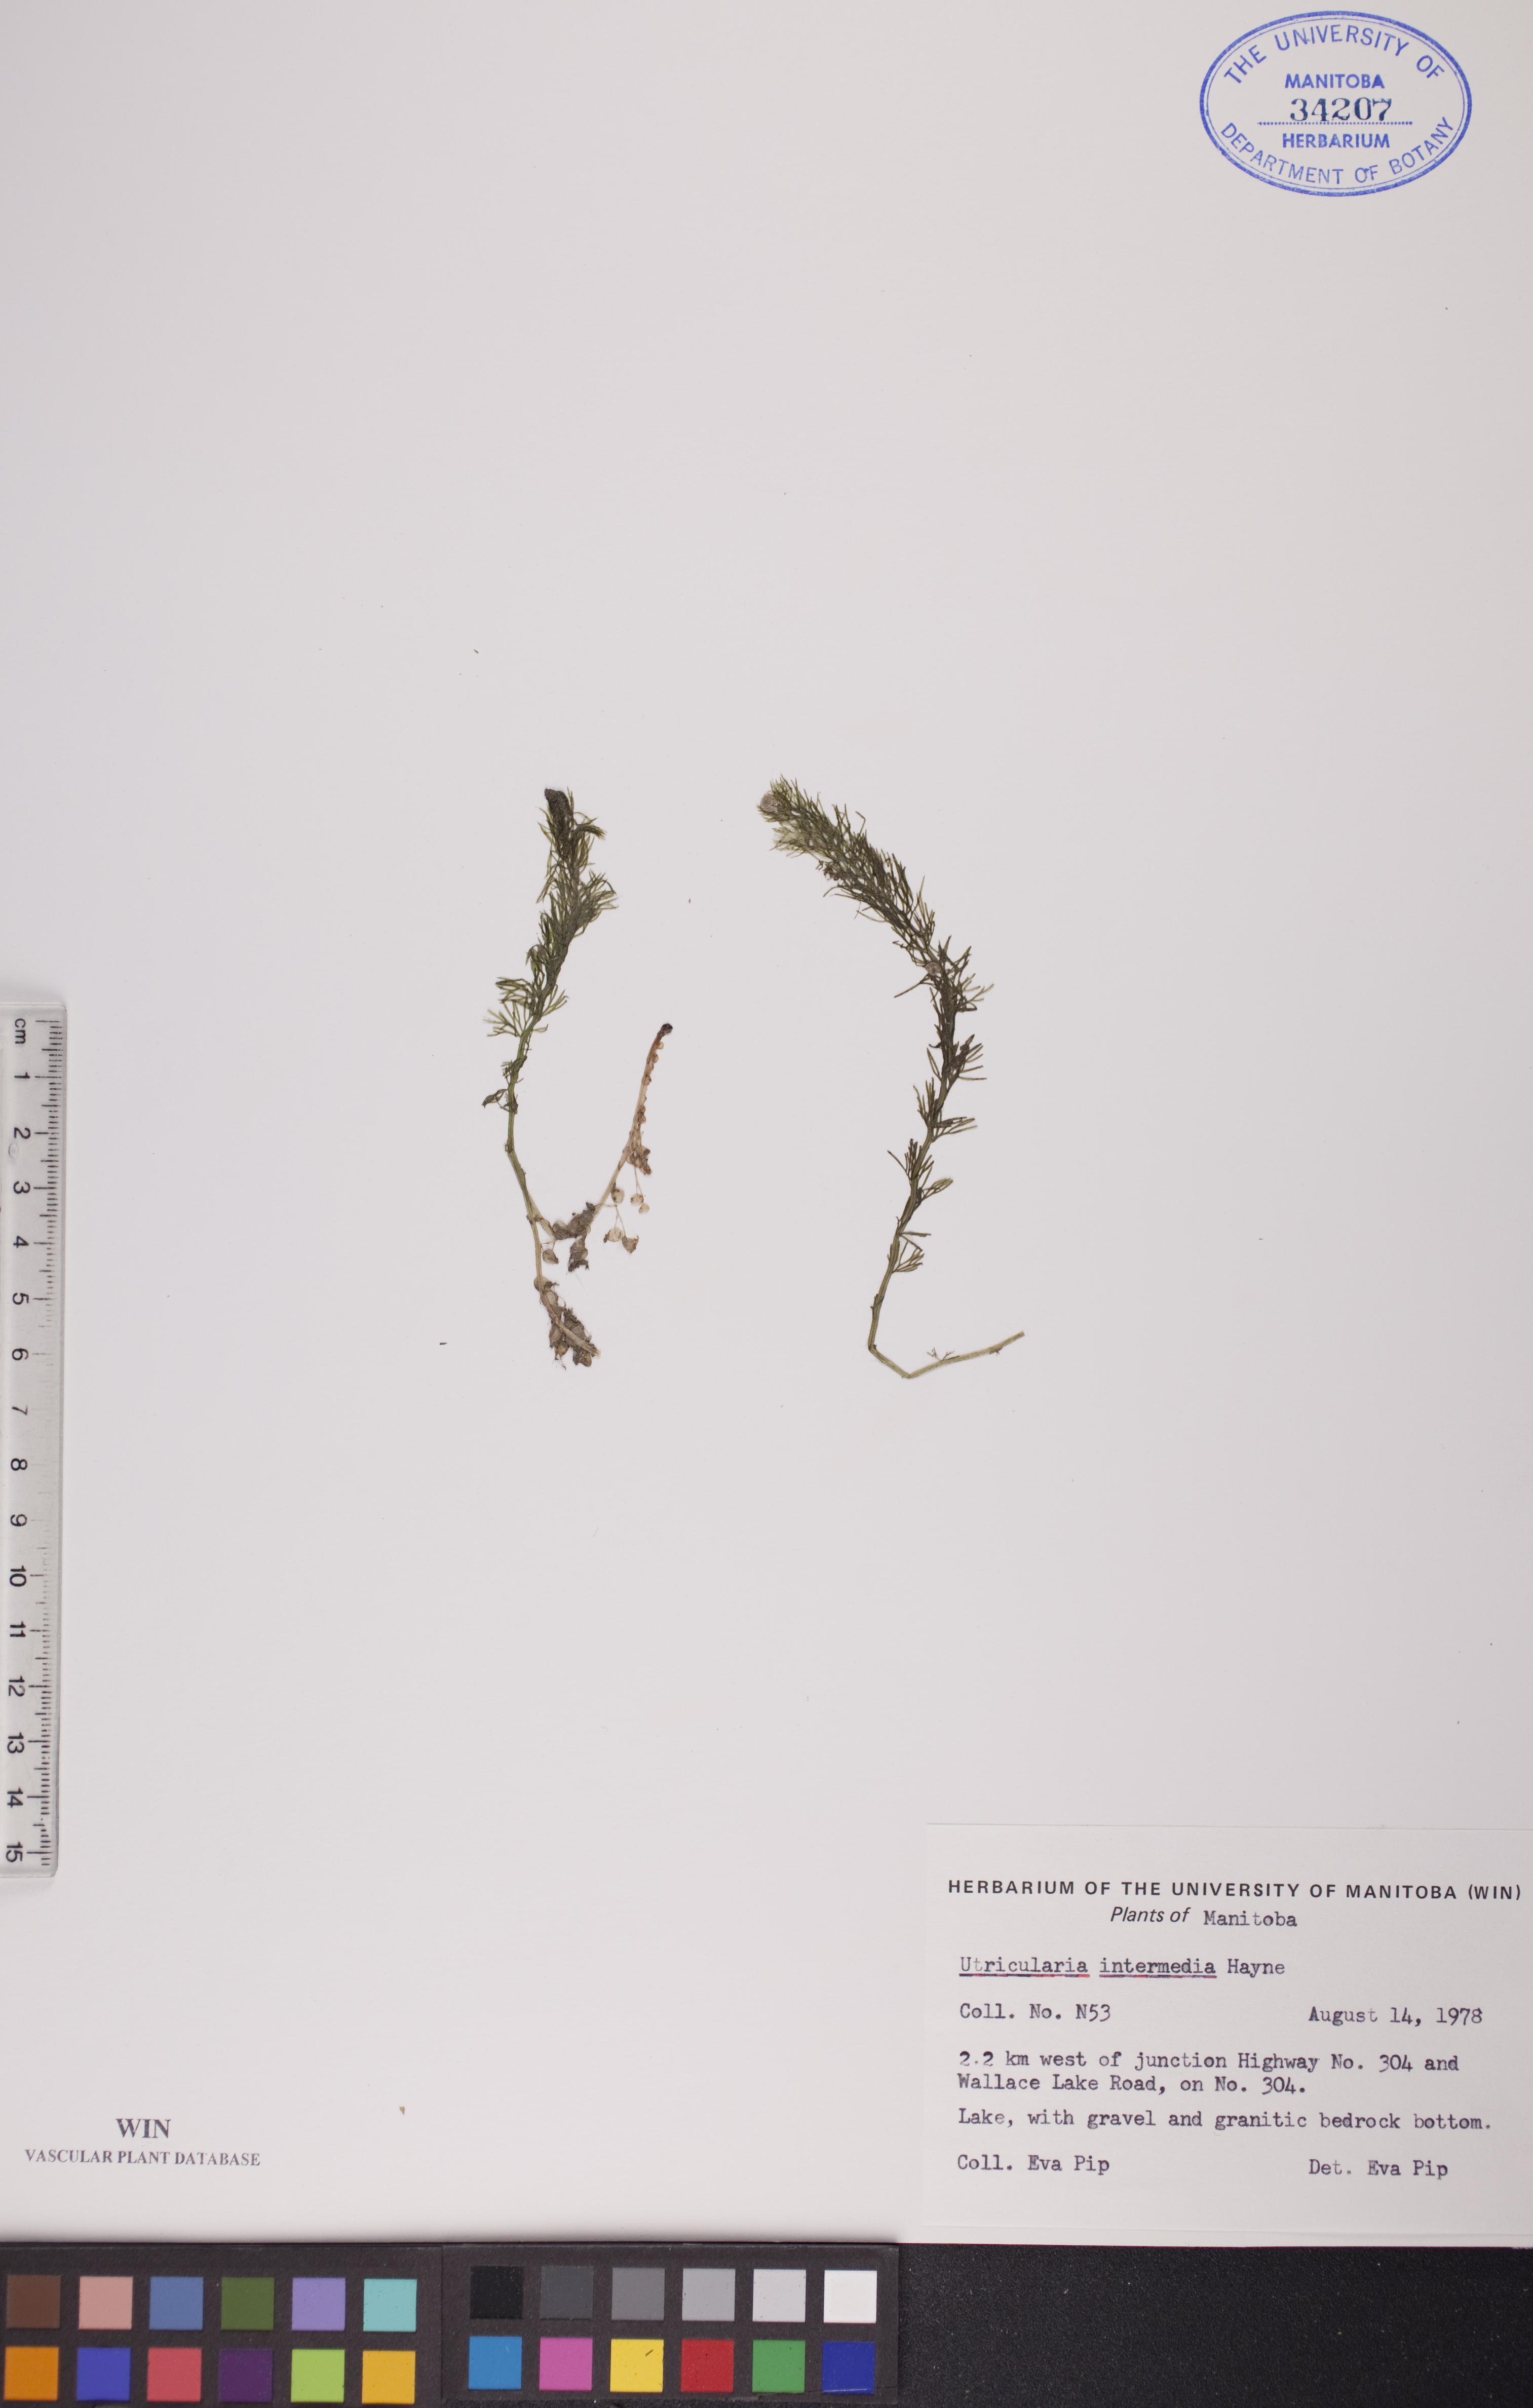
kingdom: Plantae
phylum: Tracheophyta
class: Magnoliopsida
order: Lamiales
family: Lentibulariaceae
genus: Utricularia
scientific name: Utricularia intermedia
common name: Intermediate bladderwort
